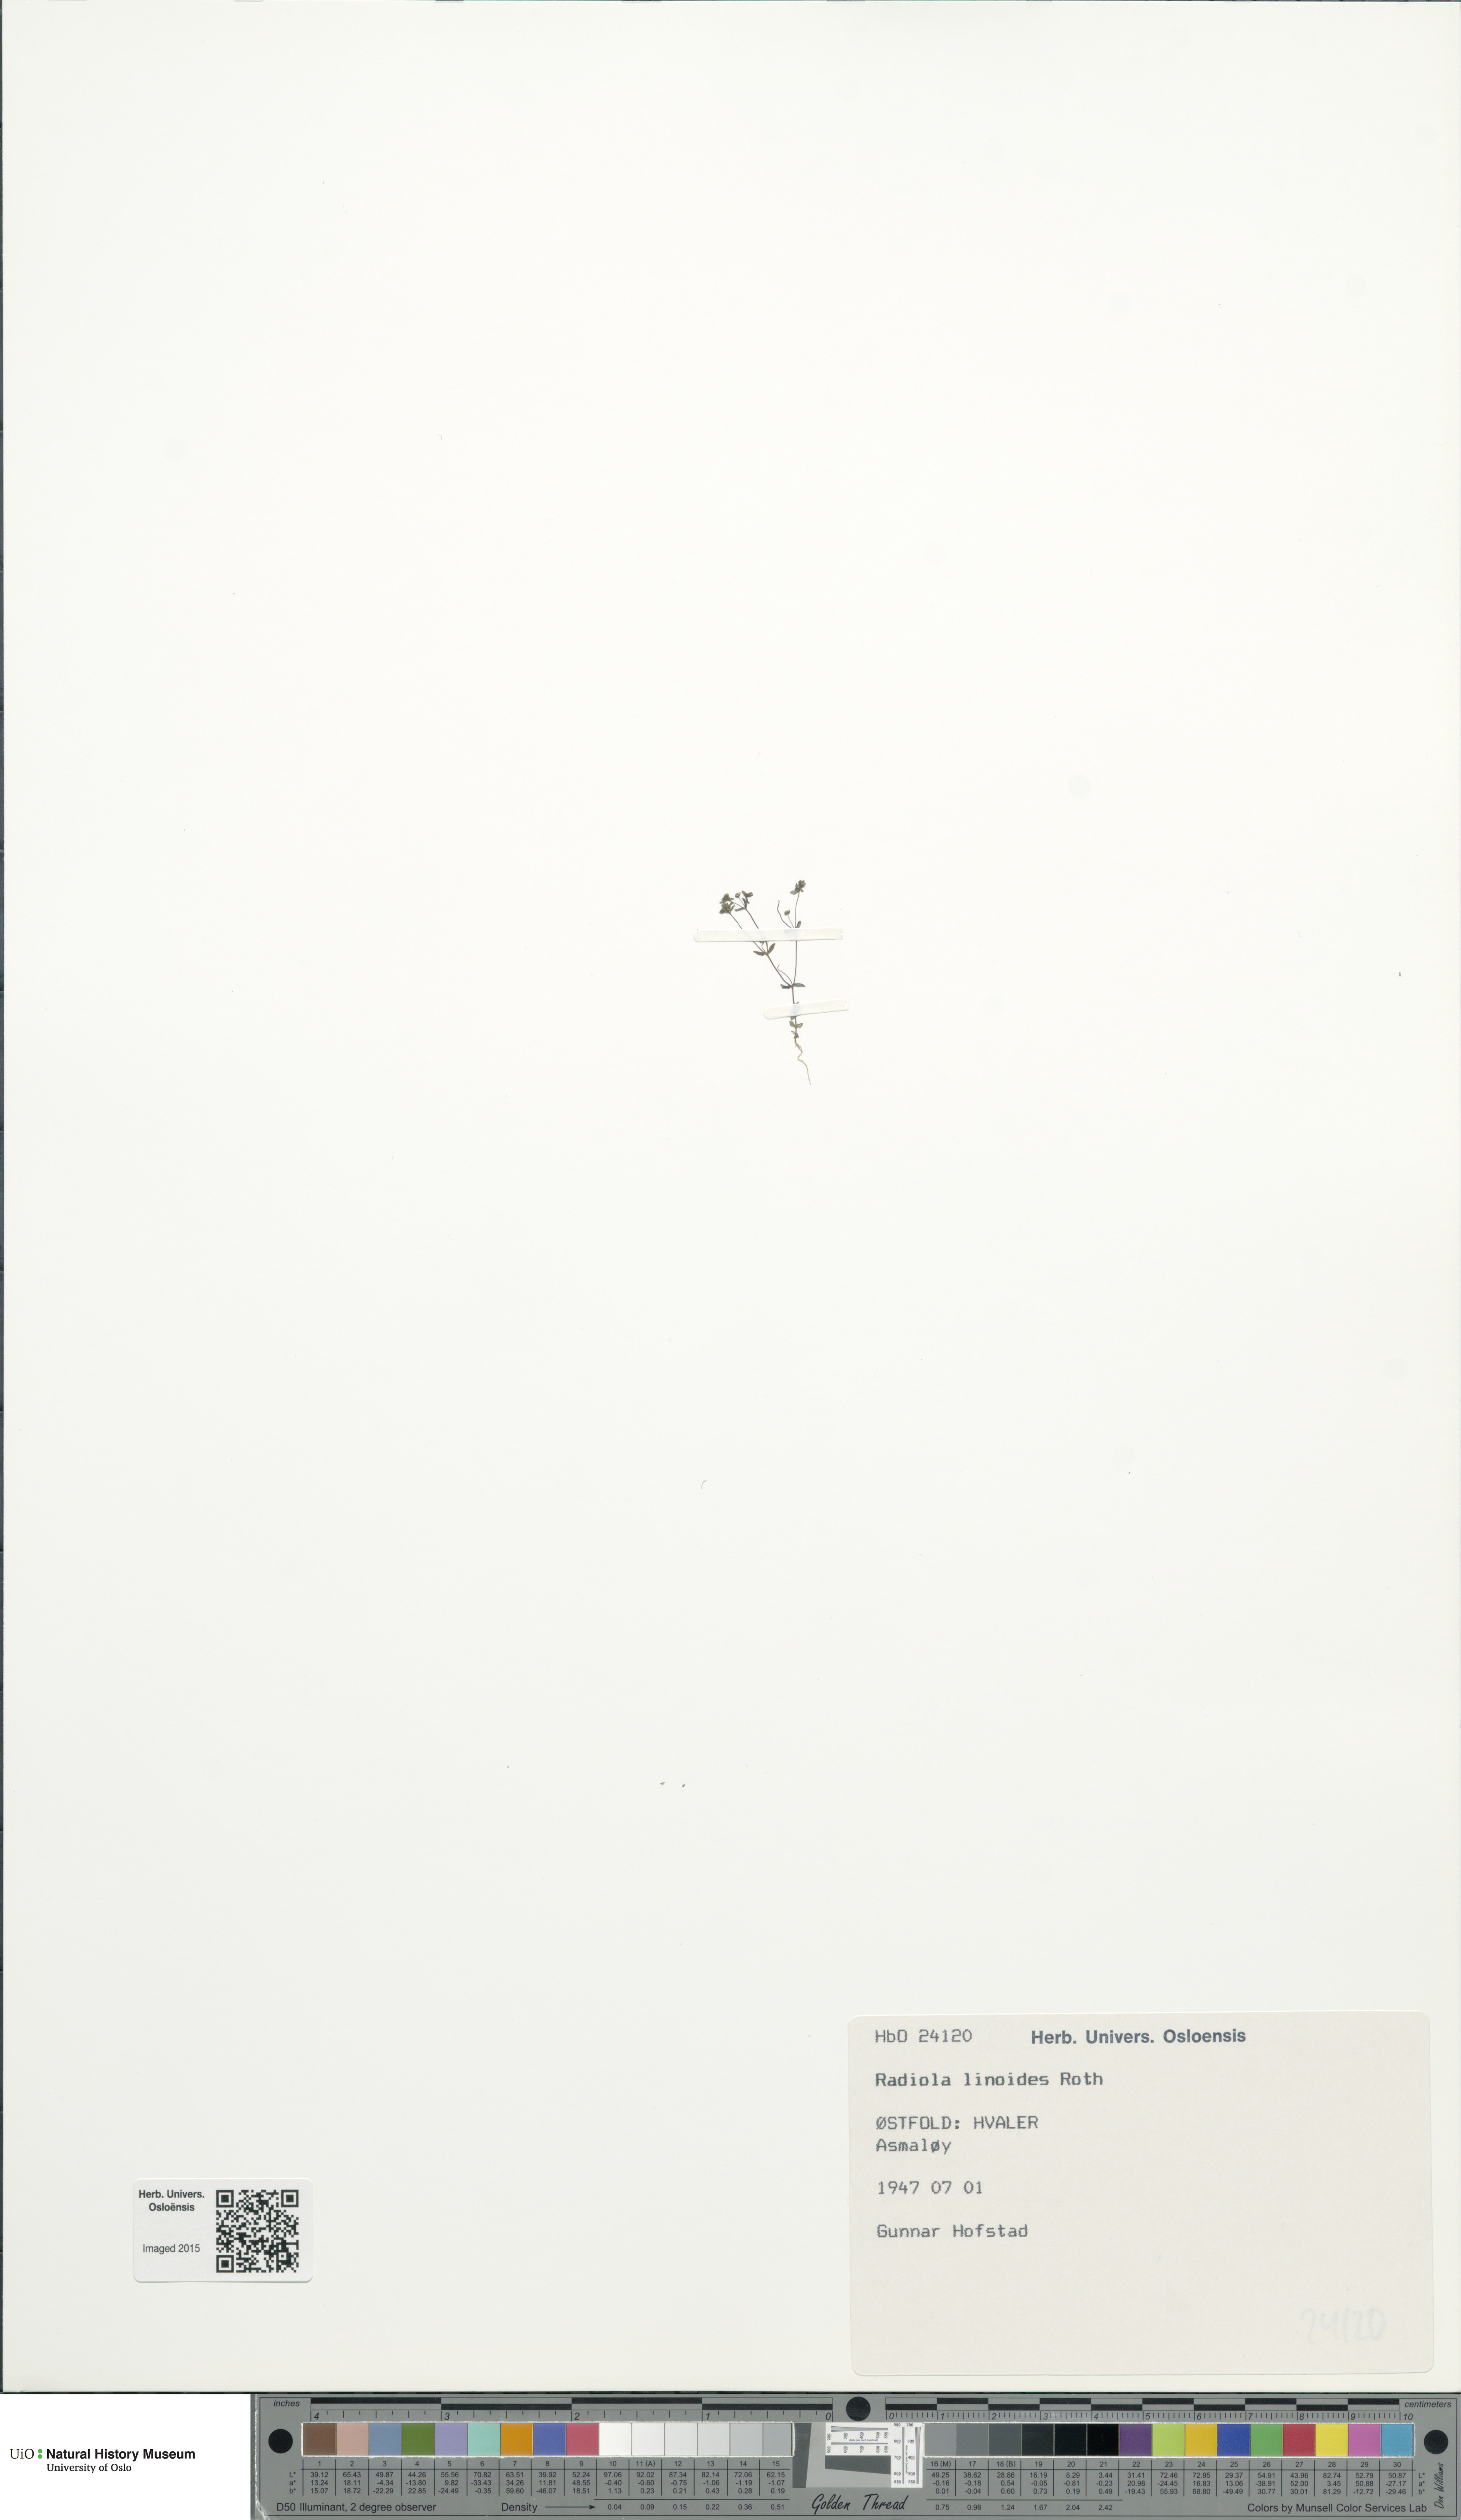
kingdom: Plantae
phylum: Tracheophyta
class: Magnoliopsida
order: Malpighiales
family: Linaceae
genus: Radiola
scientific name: Radiola linoides
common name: Allseed
